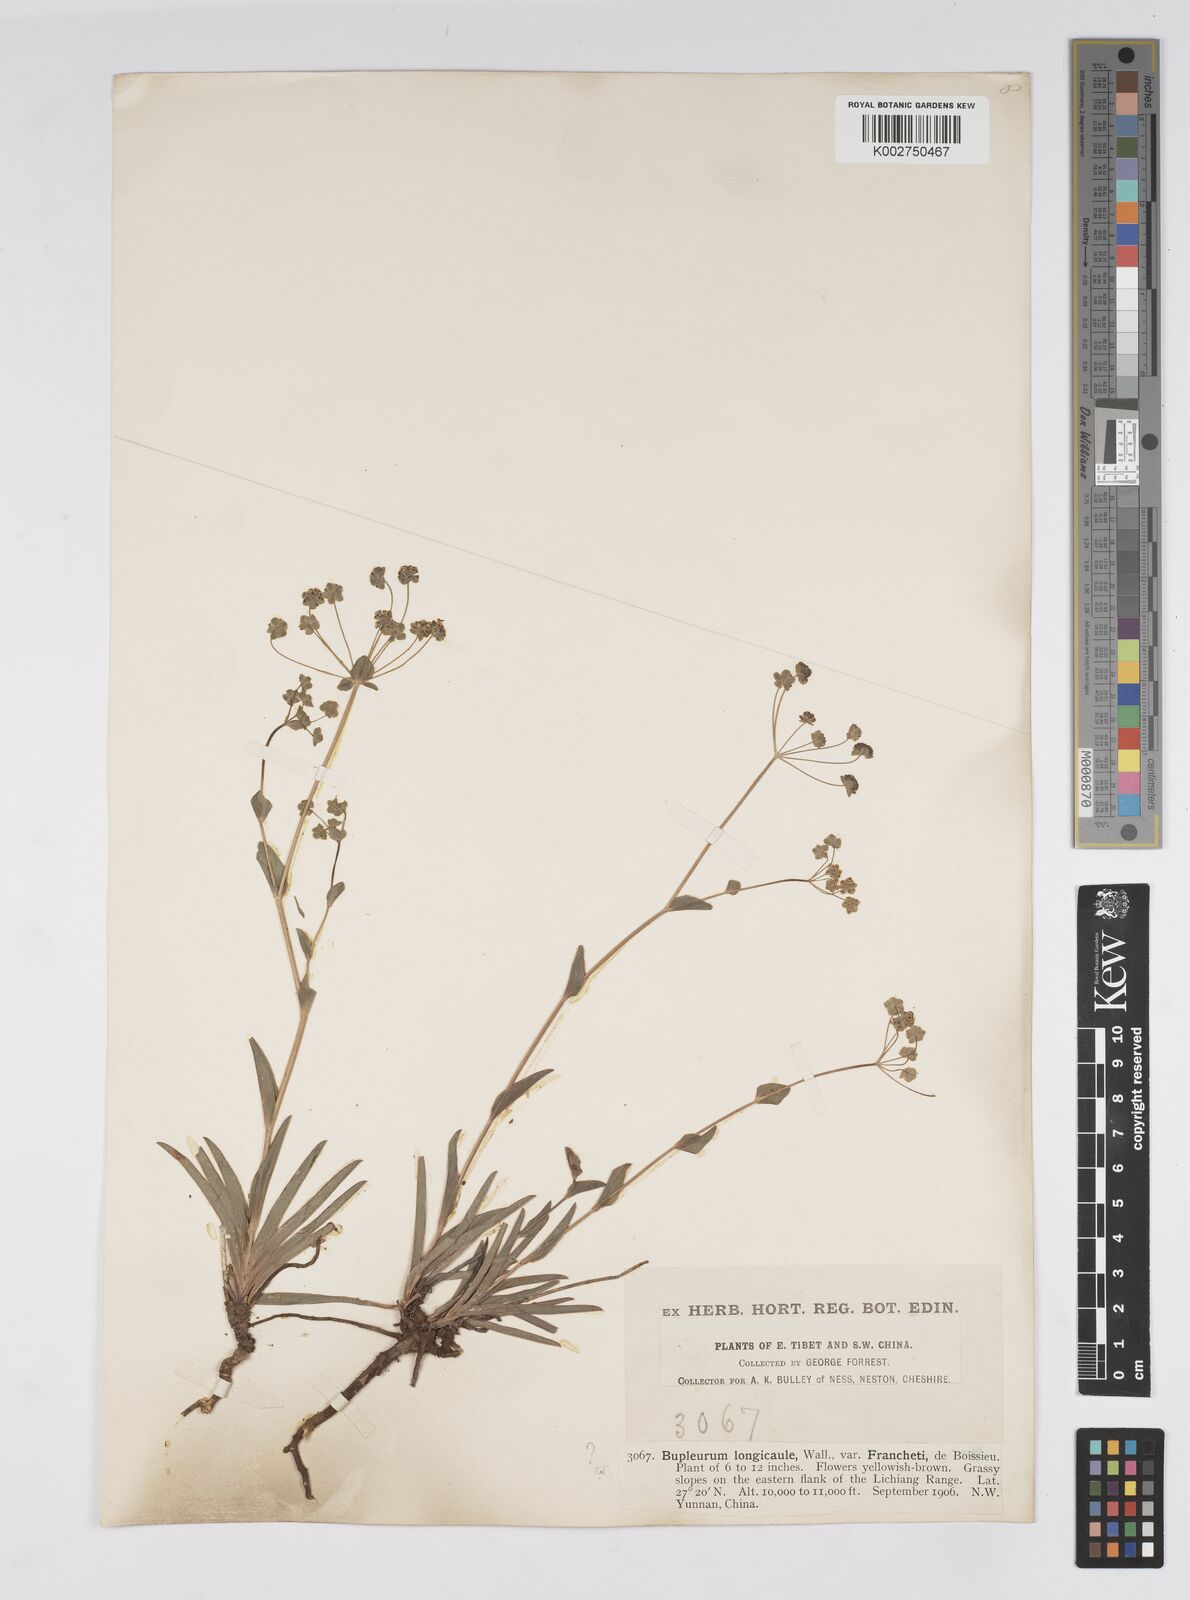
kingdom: Plantae
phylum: Tracheophyta
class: Magnoliopsida
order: Apiales
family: Apiaceae
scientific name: Apiaceae
